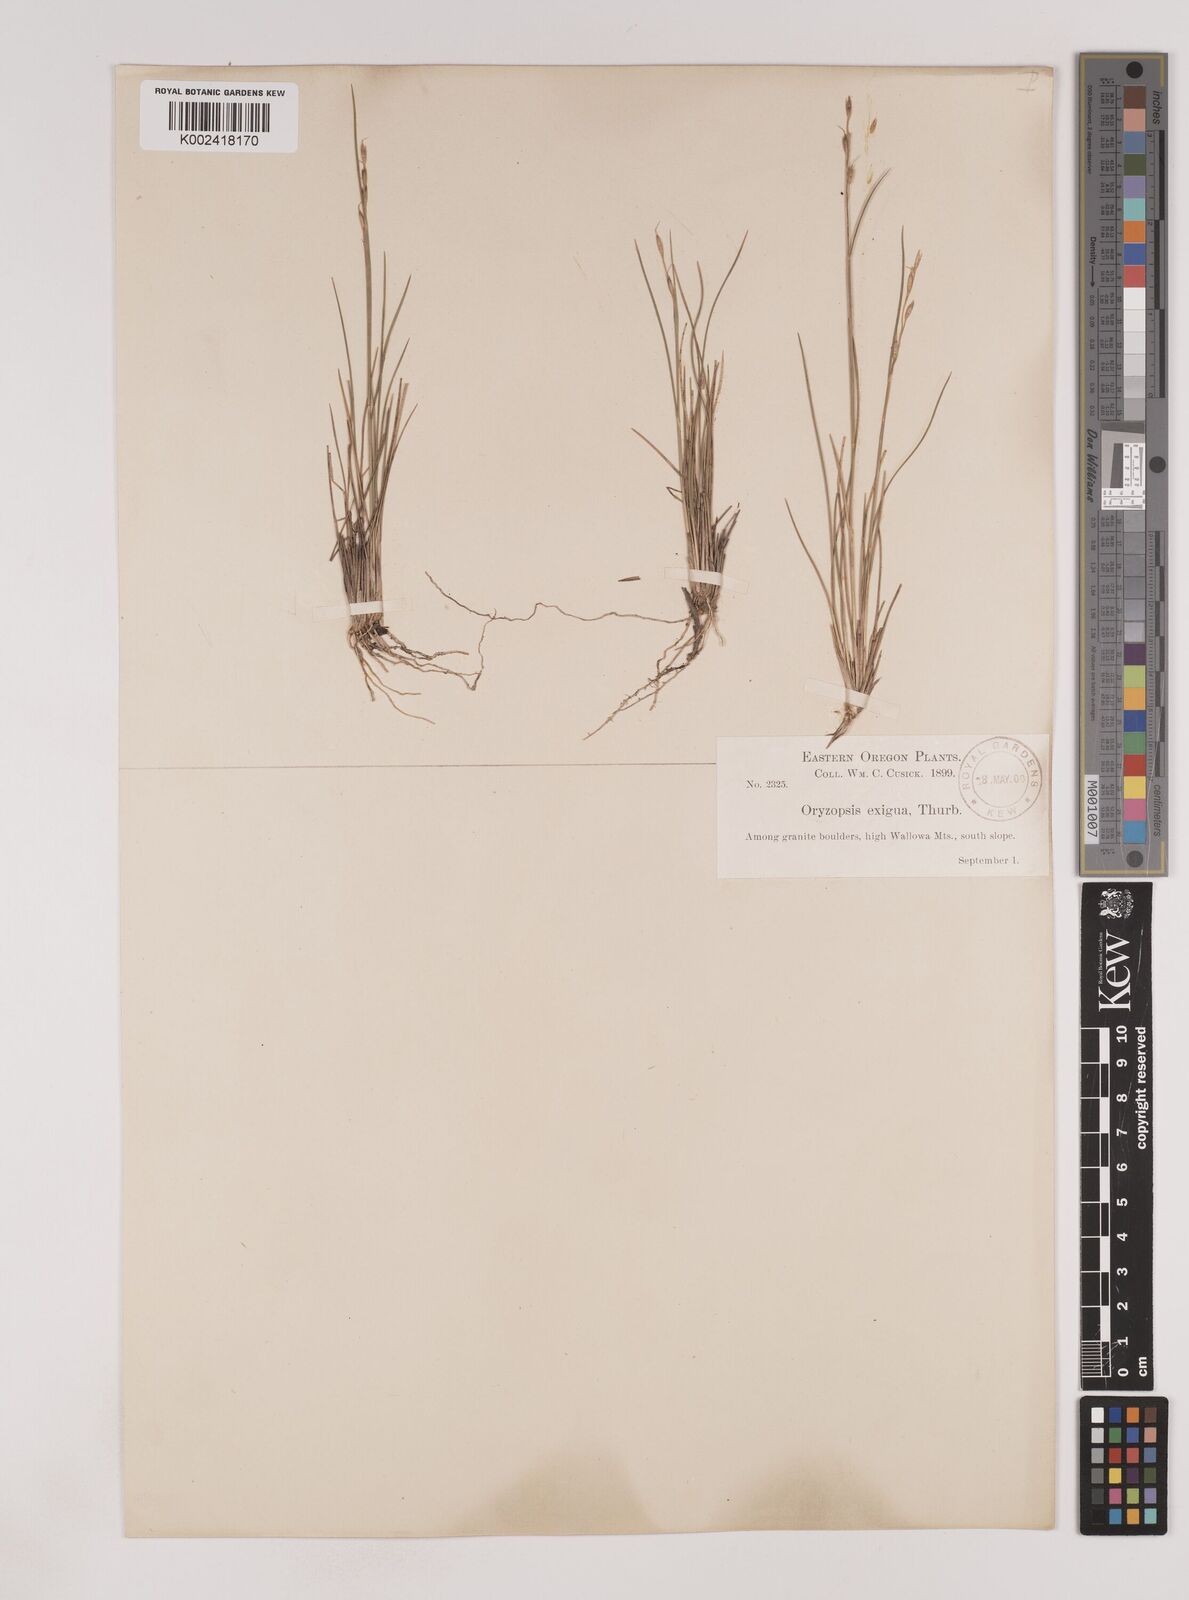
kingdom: Plantae
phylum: Tracheophyta
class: Liliopsida
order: Poales
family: Poaceae
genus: Piptatheropsis
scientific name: Piptatheropsis exigua
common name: Little mountain ricegrass
